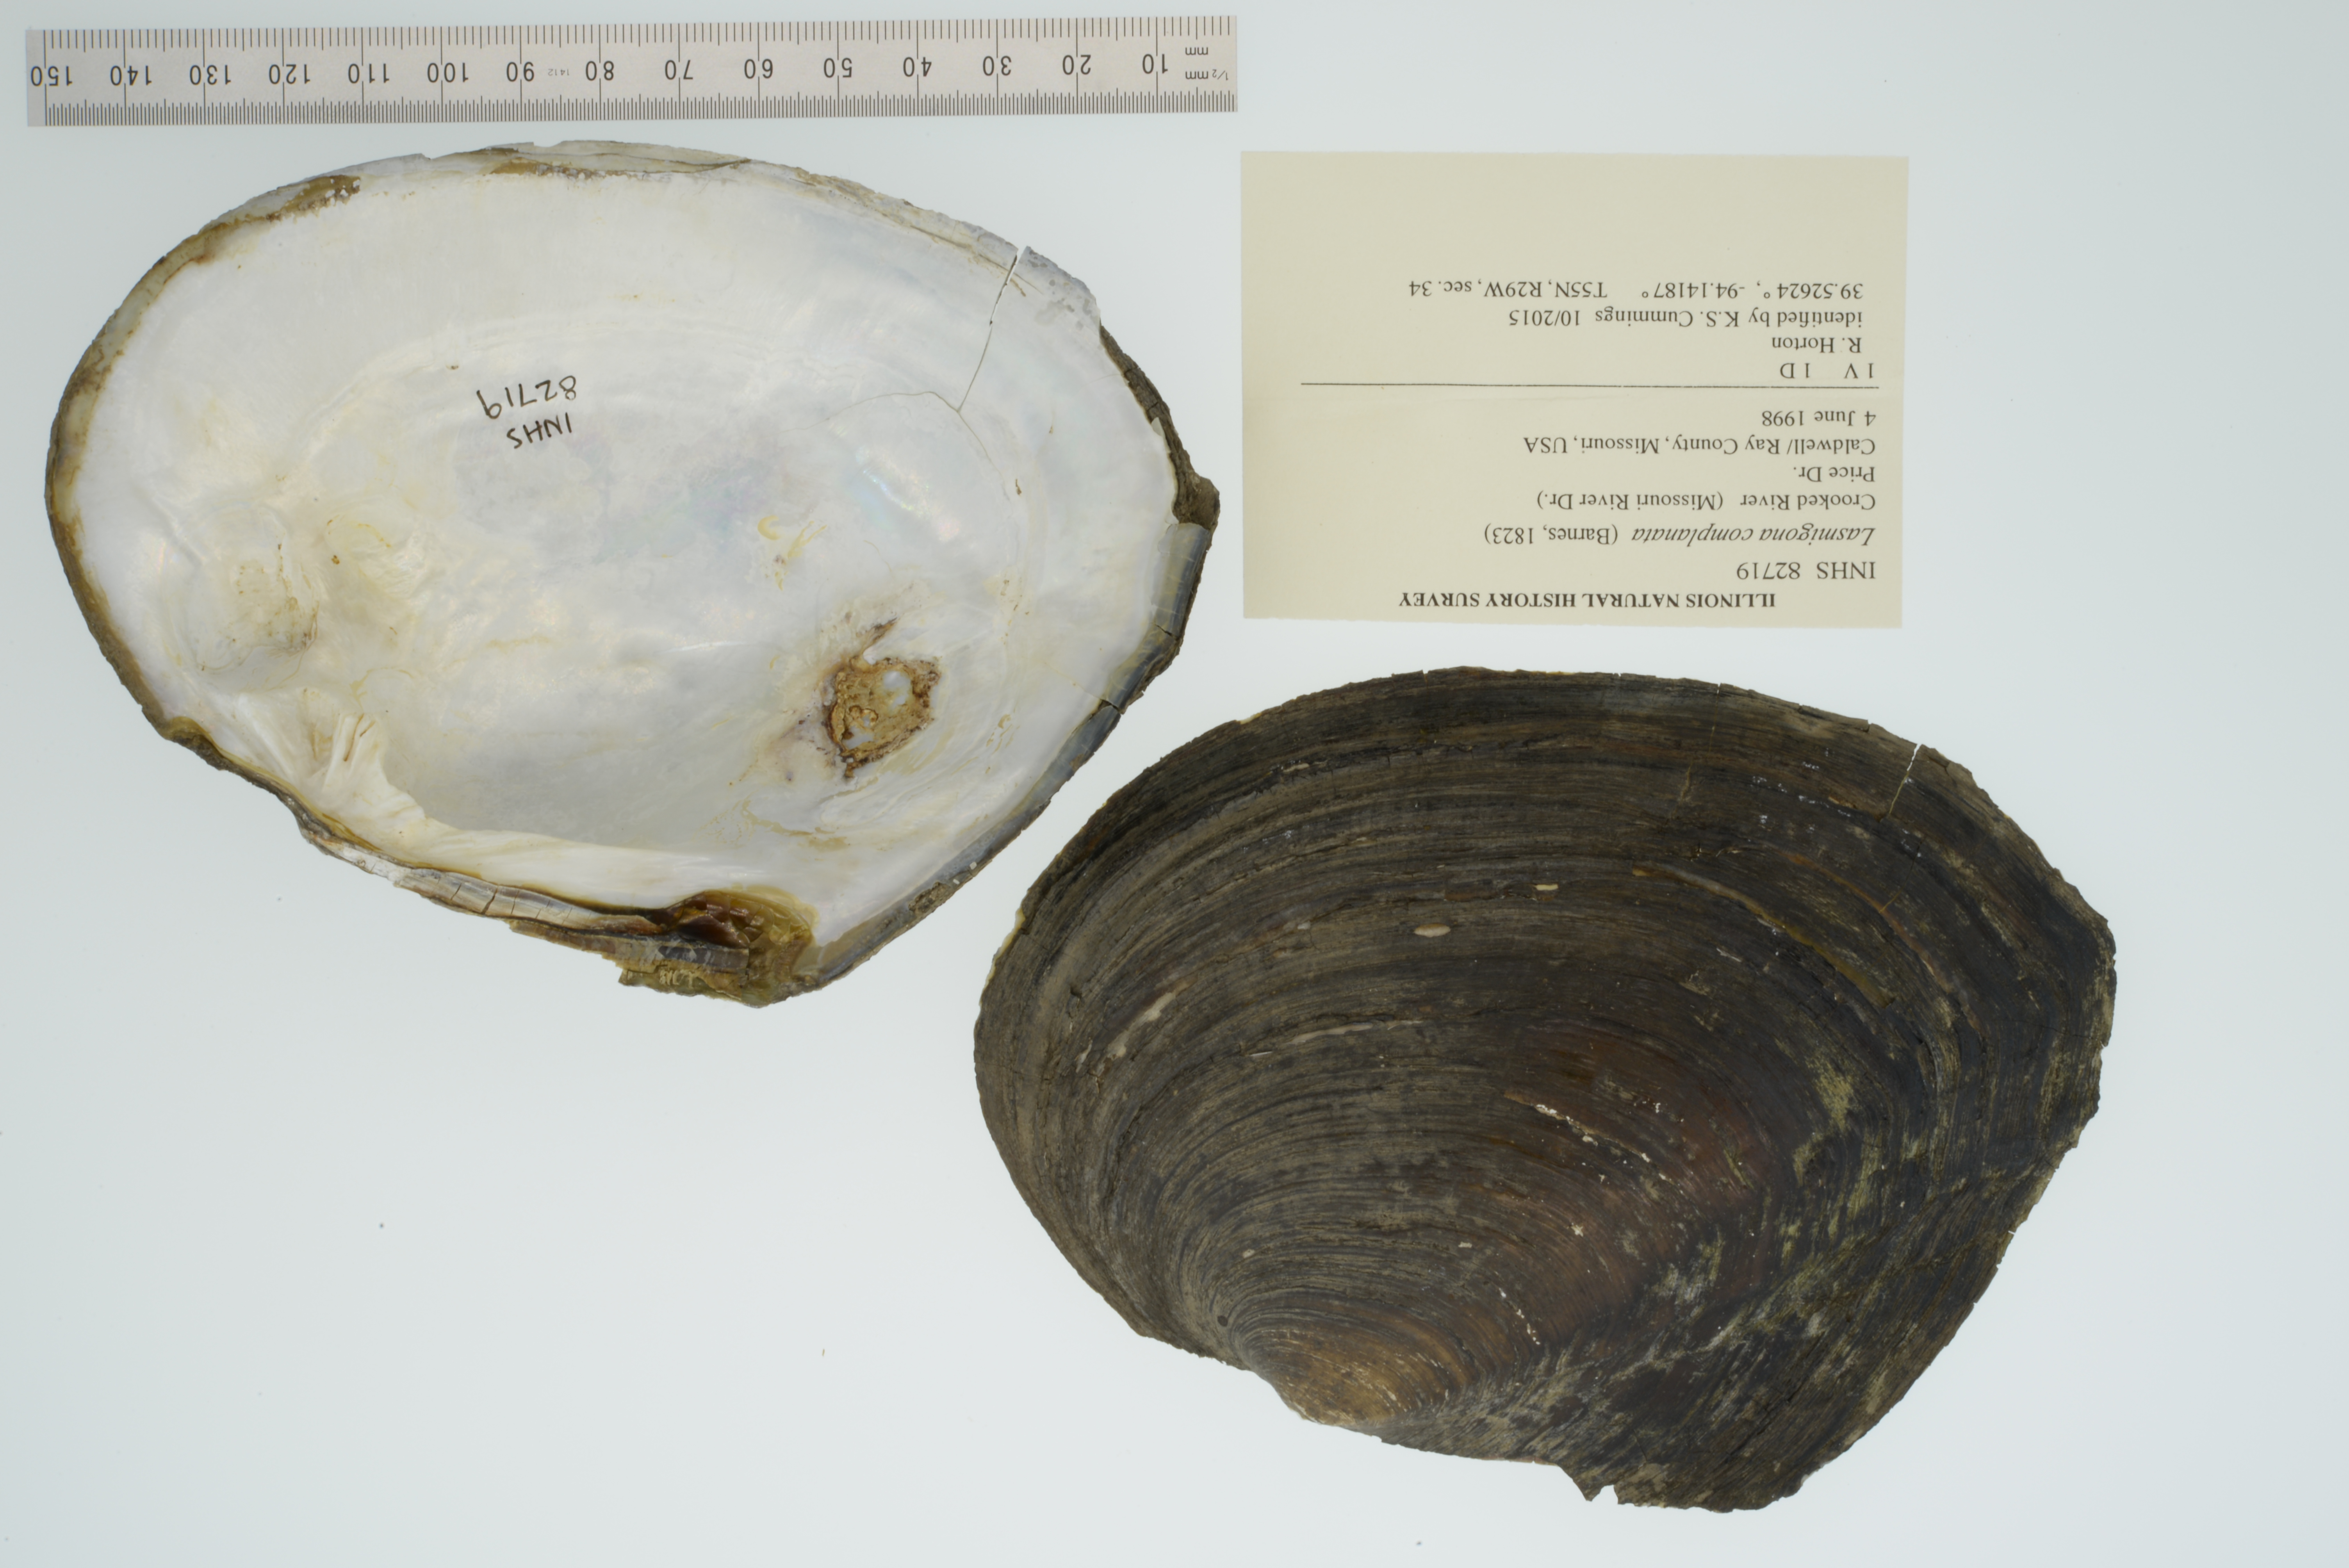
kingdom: Animalia
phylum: Mollusca
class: Bivalvia
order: Unionida
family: Unionidae
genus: Lasmigona
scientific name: Lasmigona complanata
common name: White heelsplitter
